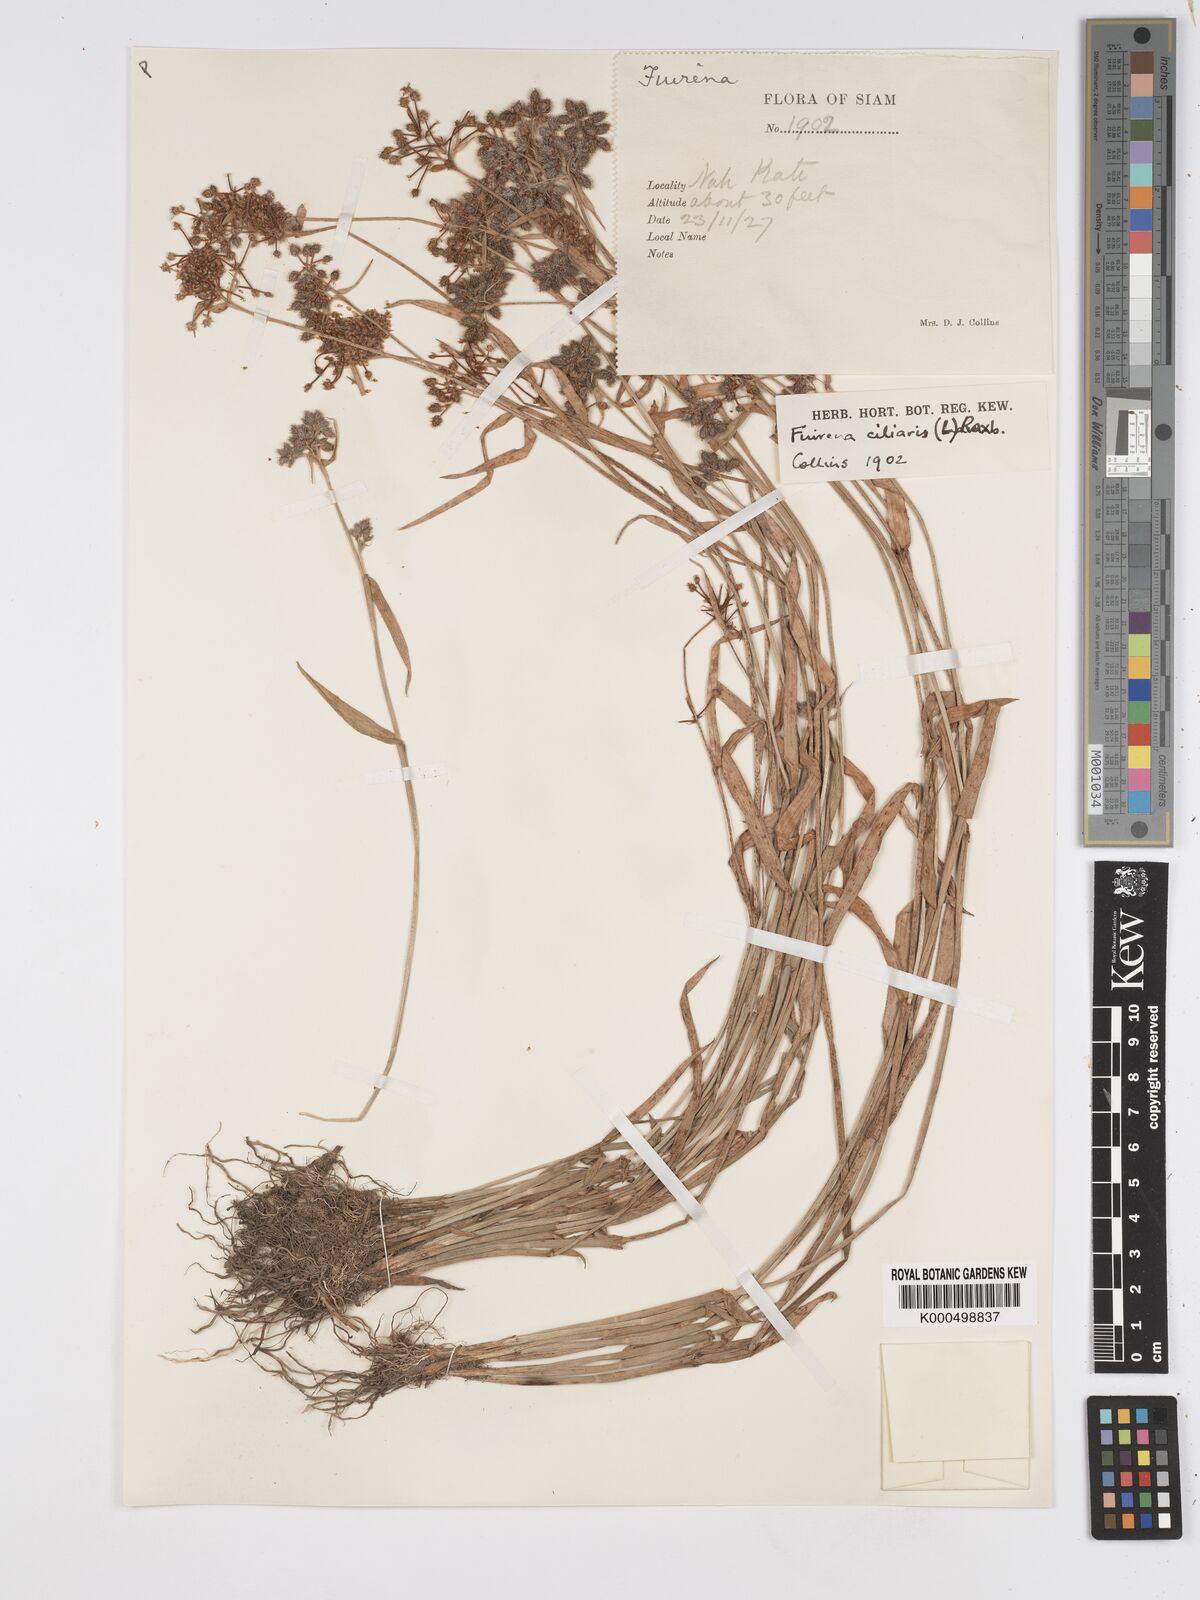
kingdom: Plantae
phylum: Tracheophyta
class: Liliopsida
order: Poales
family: Cyperaceae
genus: Fuirena
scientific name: Fuirena ciliaris
